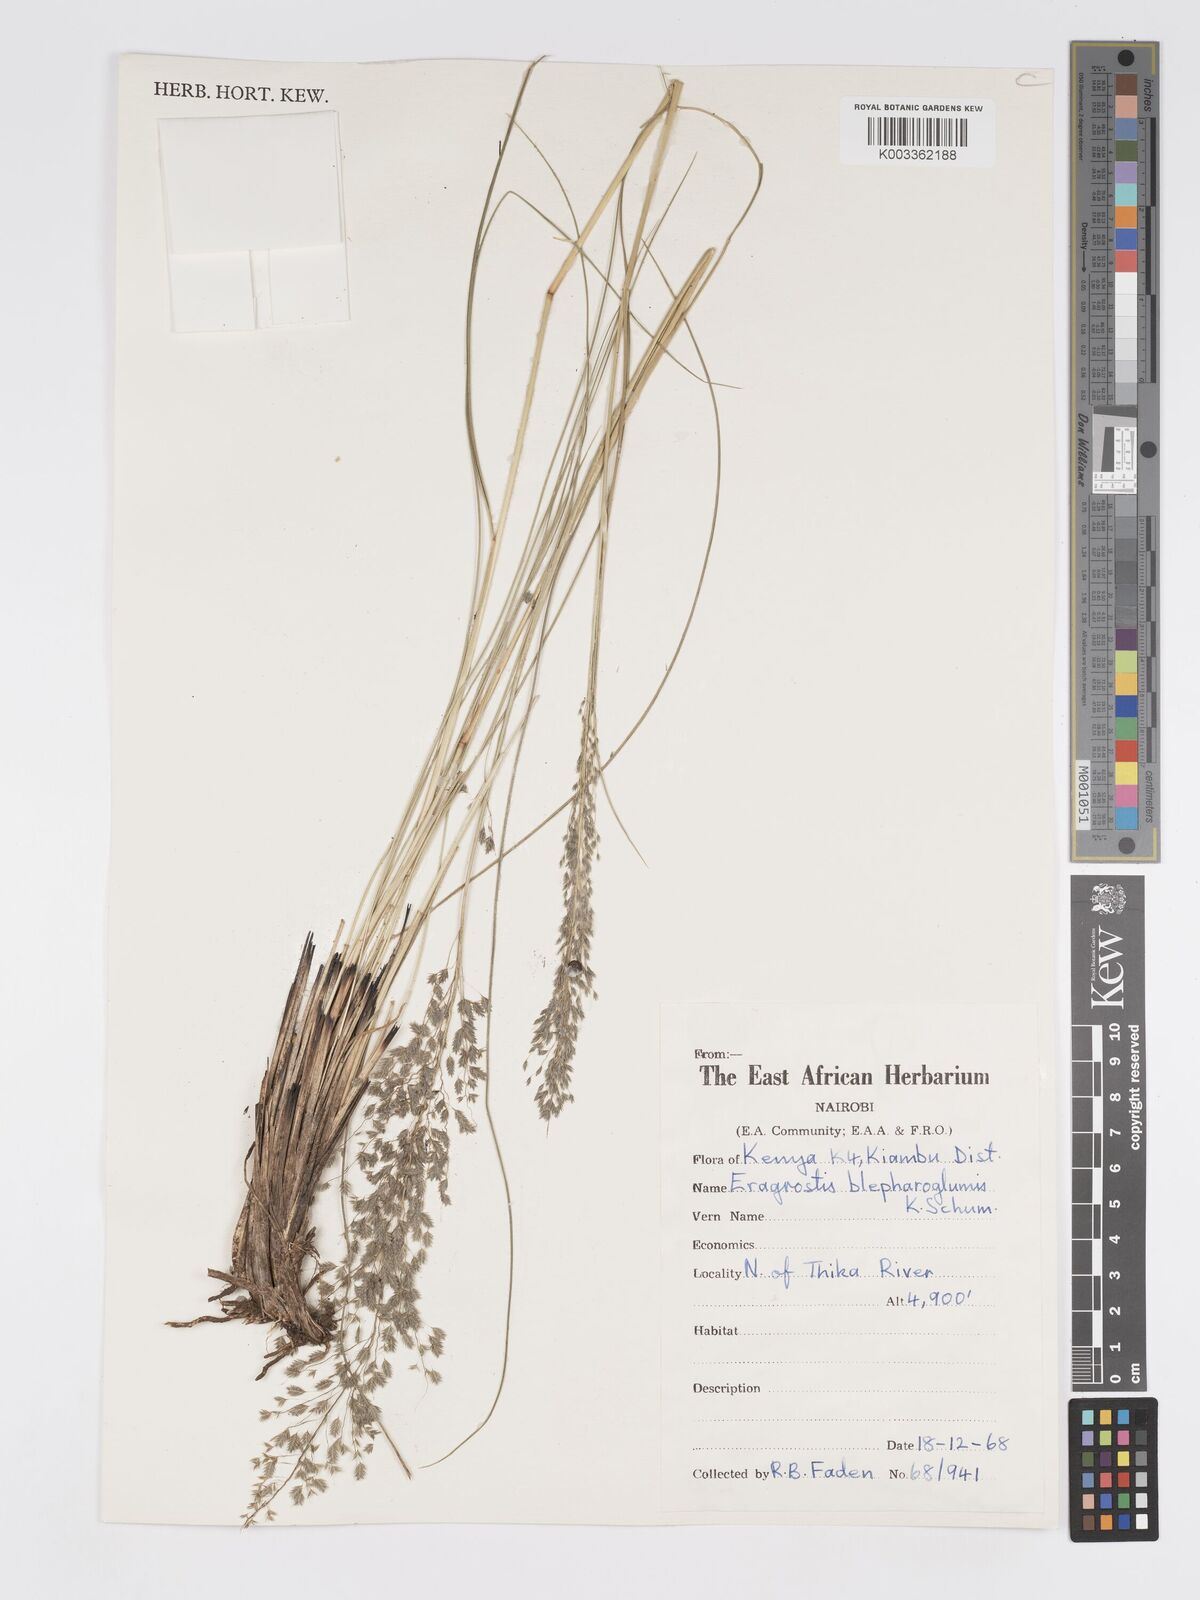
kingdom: Plantae
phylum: Tracheophyta
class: Liliopsida
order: Poales
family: Poaceae
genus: Eragrostis
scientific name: Eragrostis olivacea
